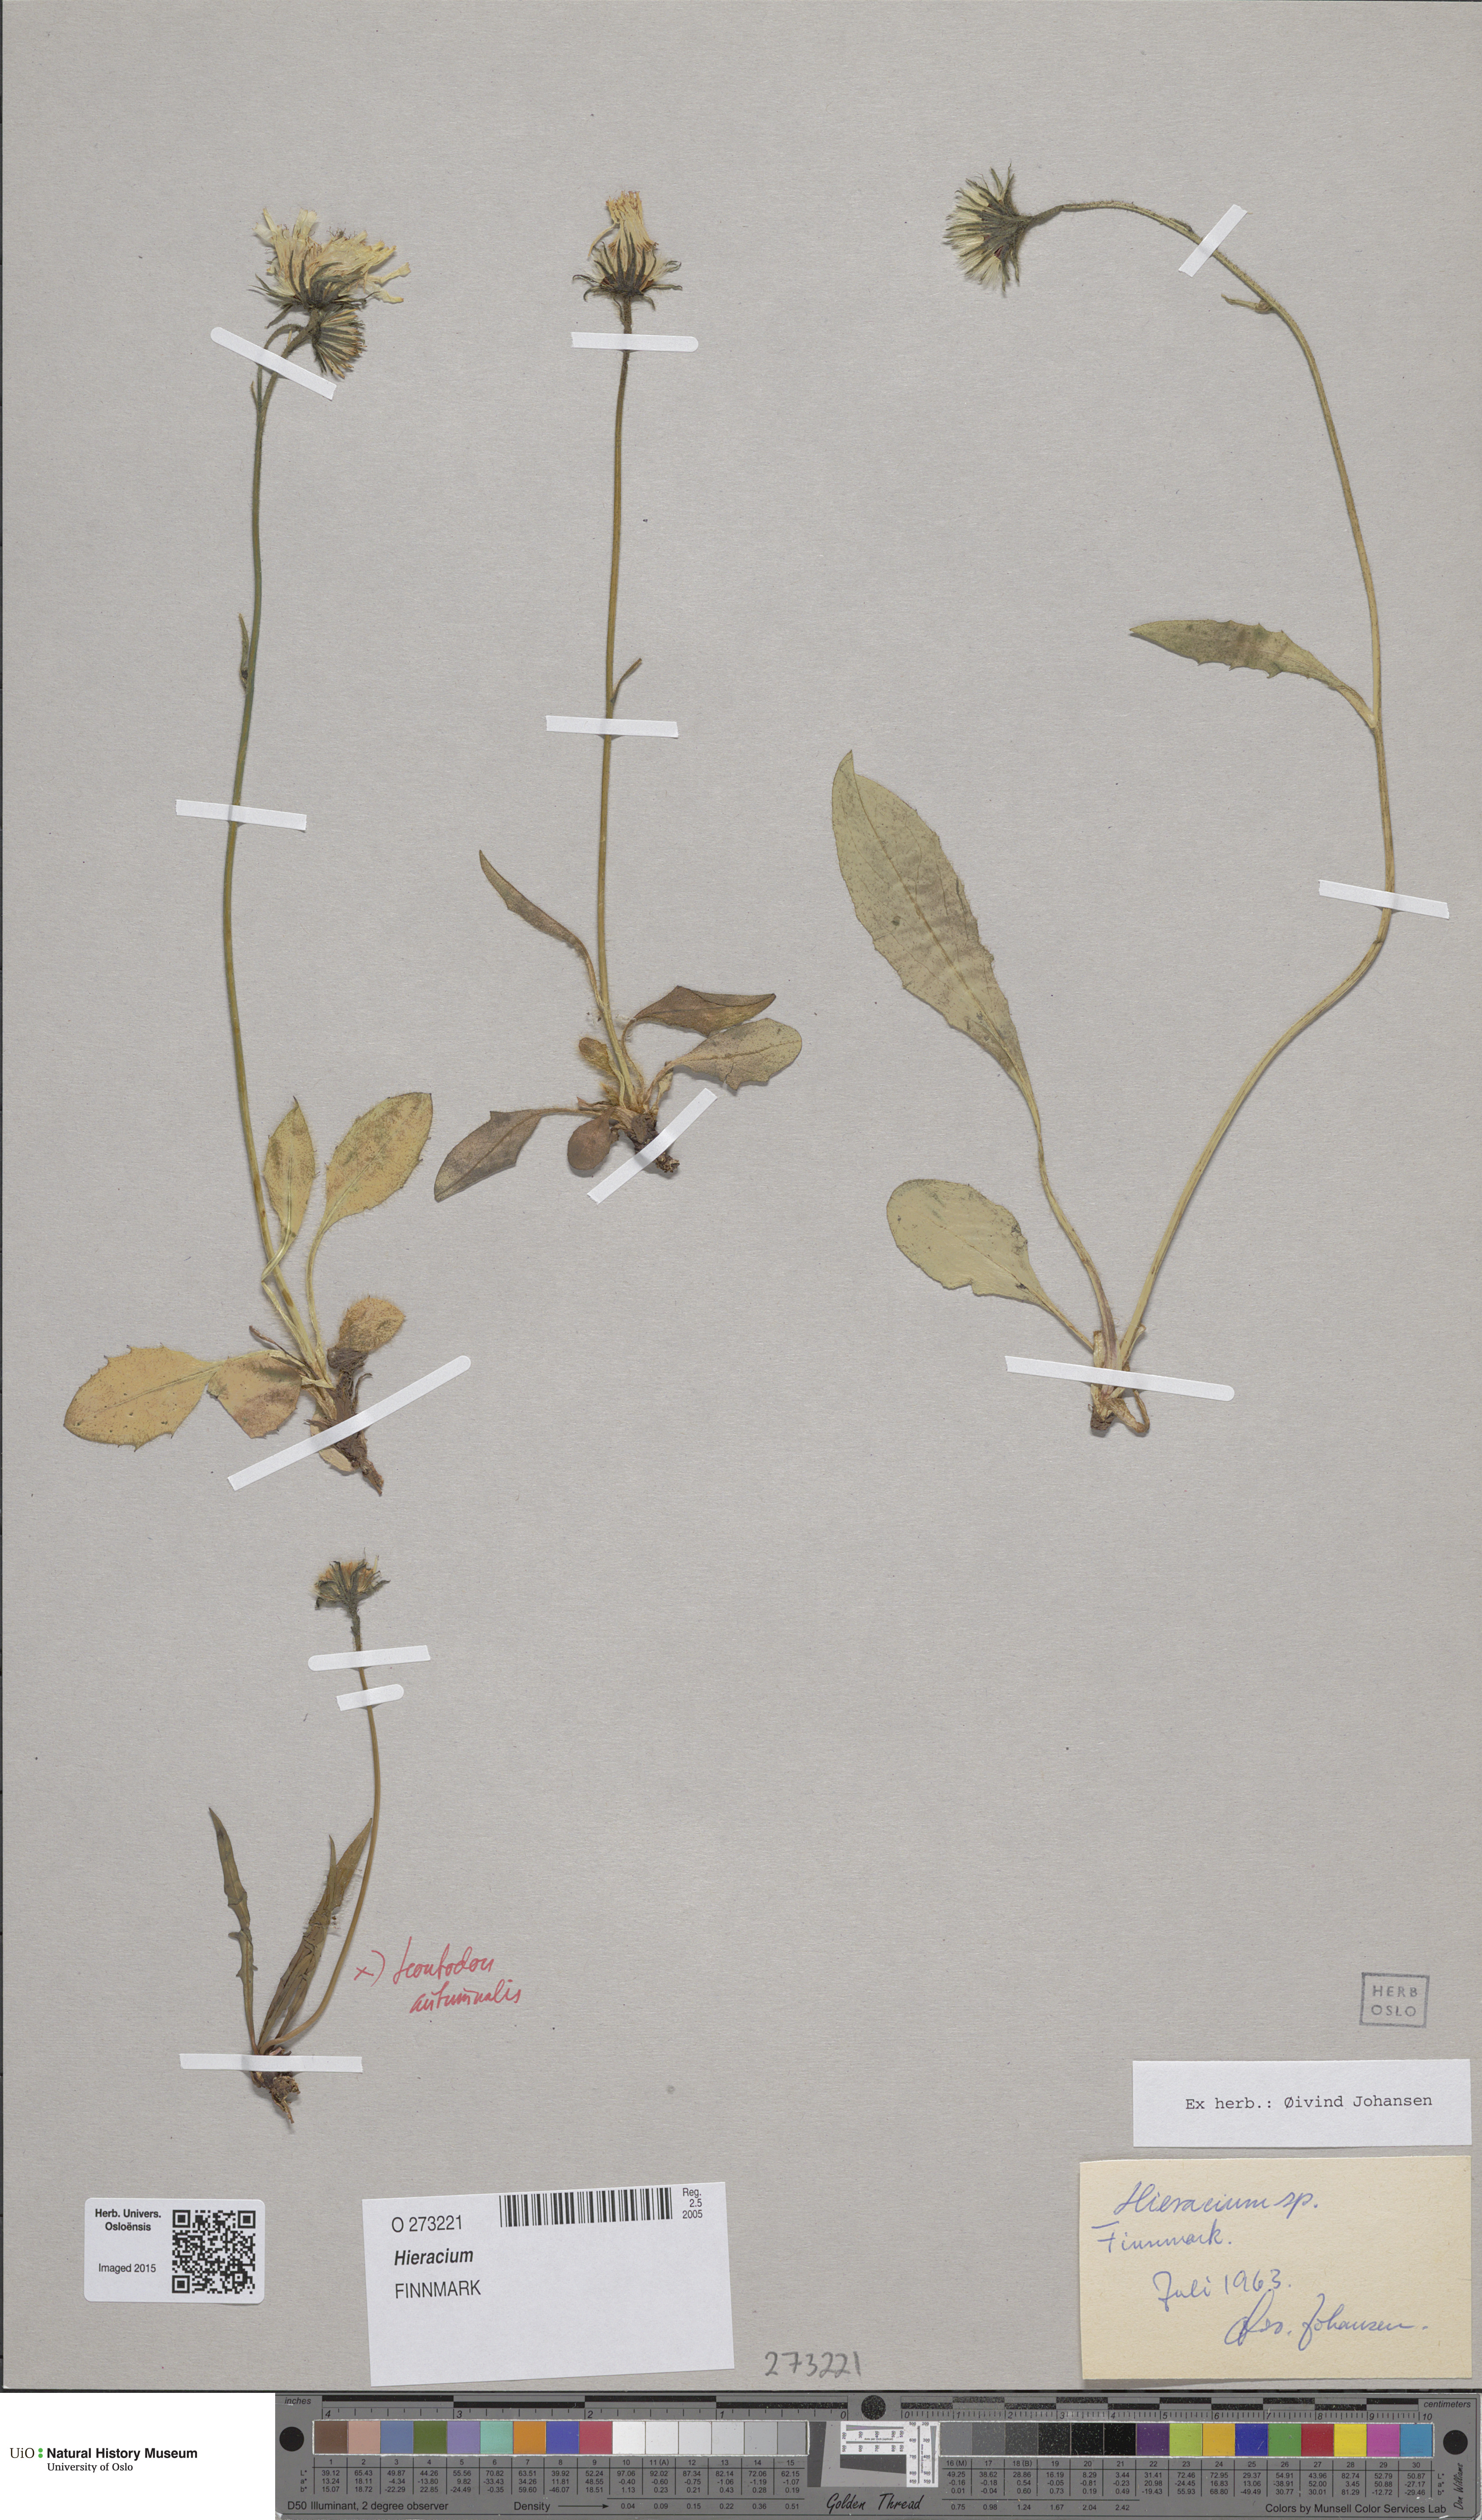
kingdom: Plantae
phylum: Tracheophyta
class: Magnoliopsida
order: Asterales
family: Asteraceae
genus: Hieracium
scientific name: Hieracium
